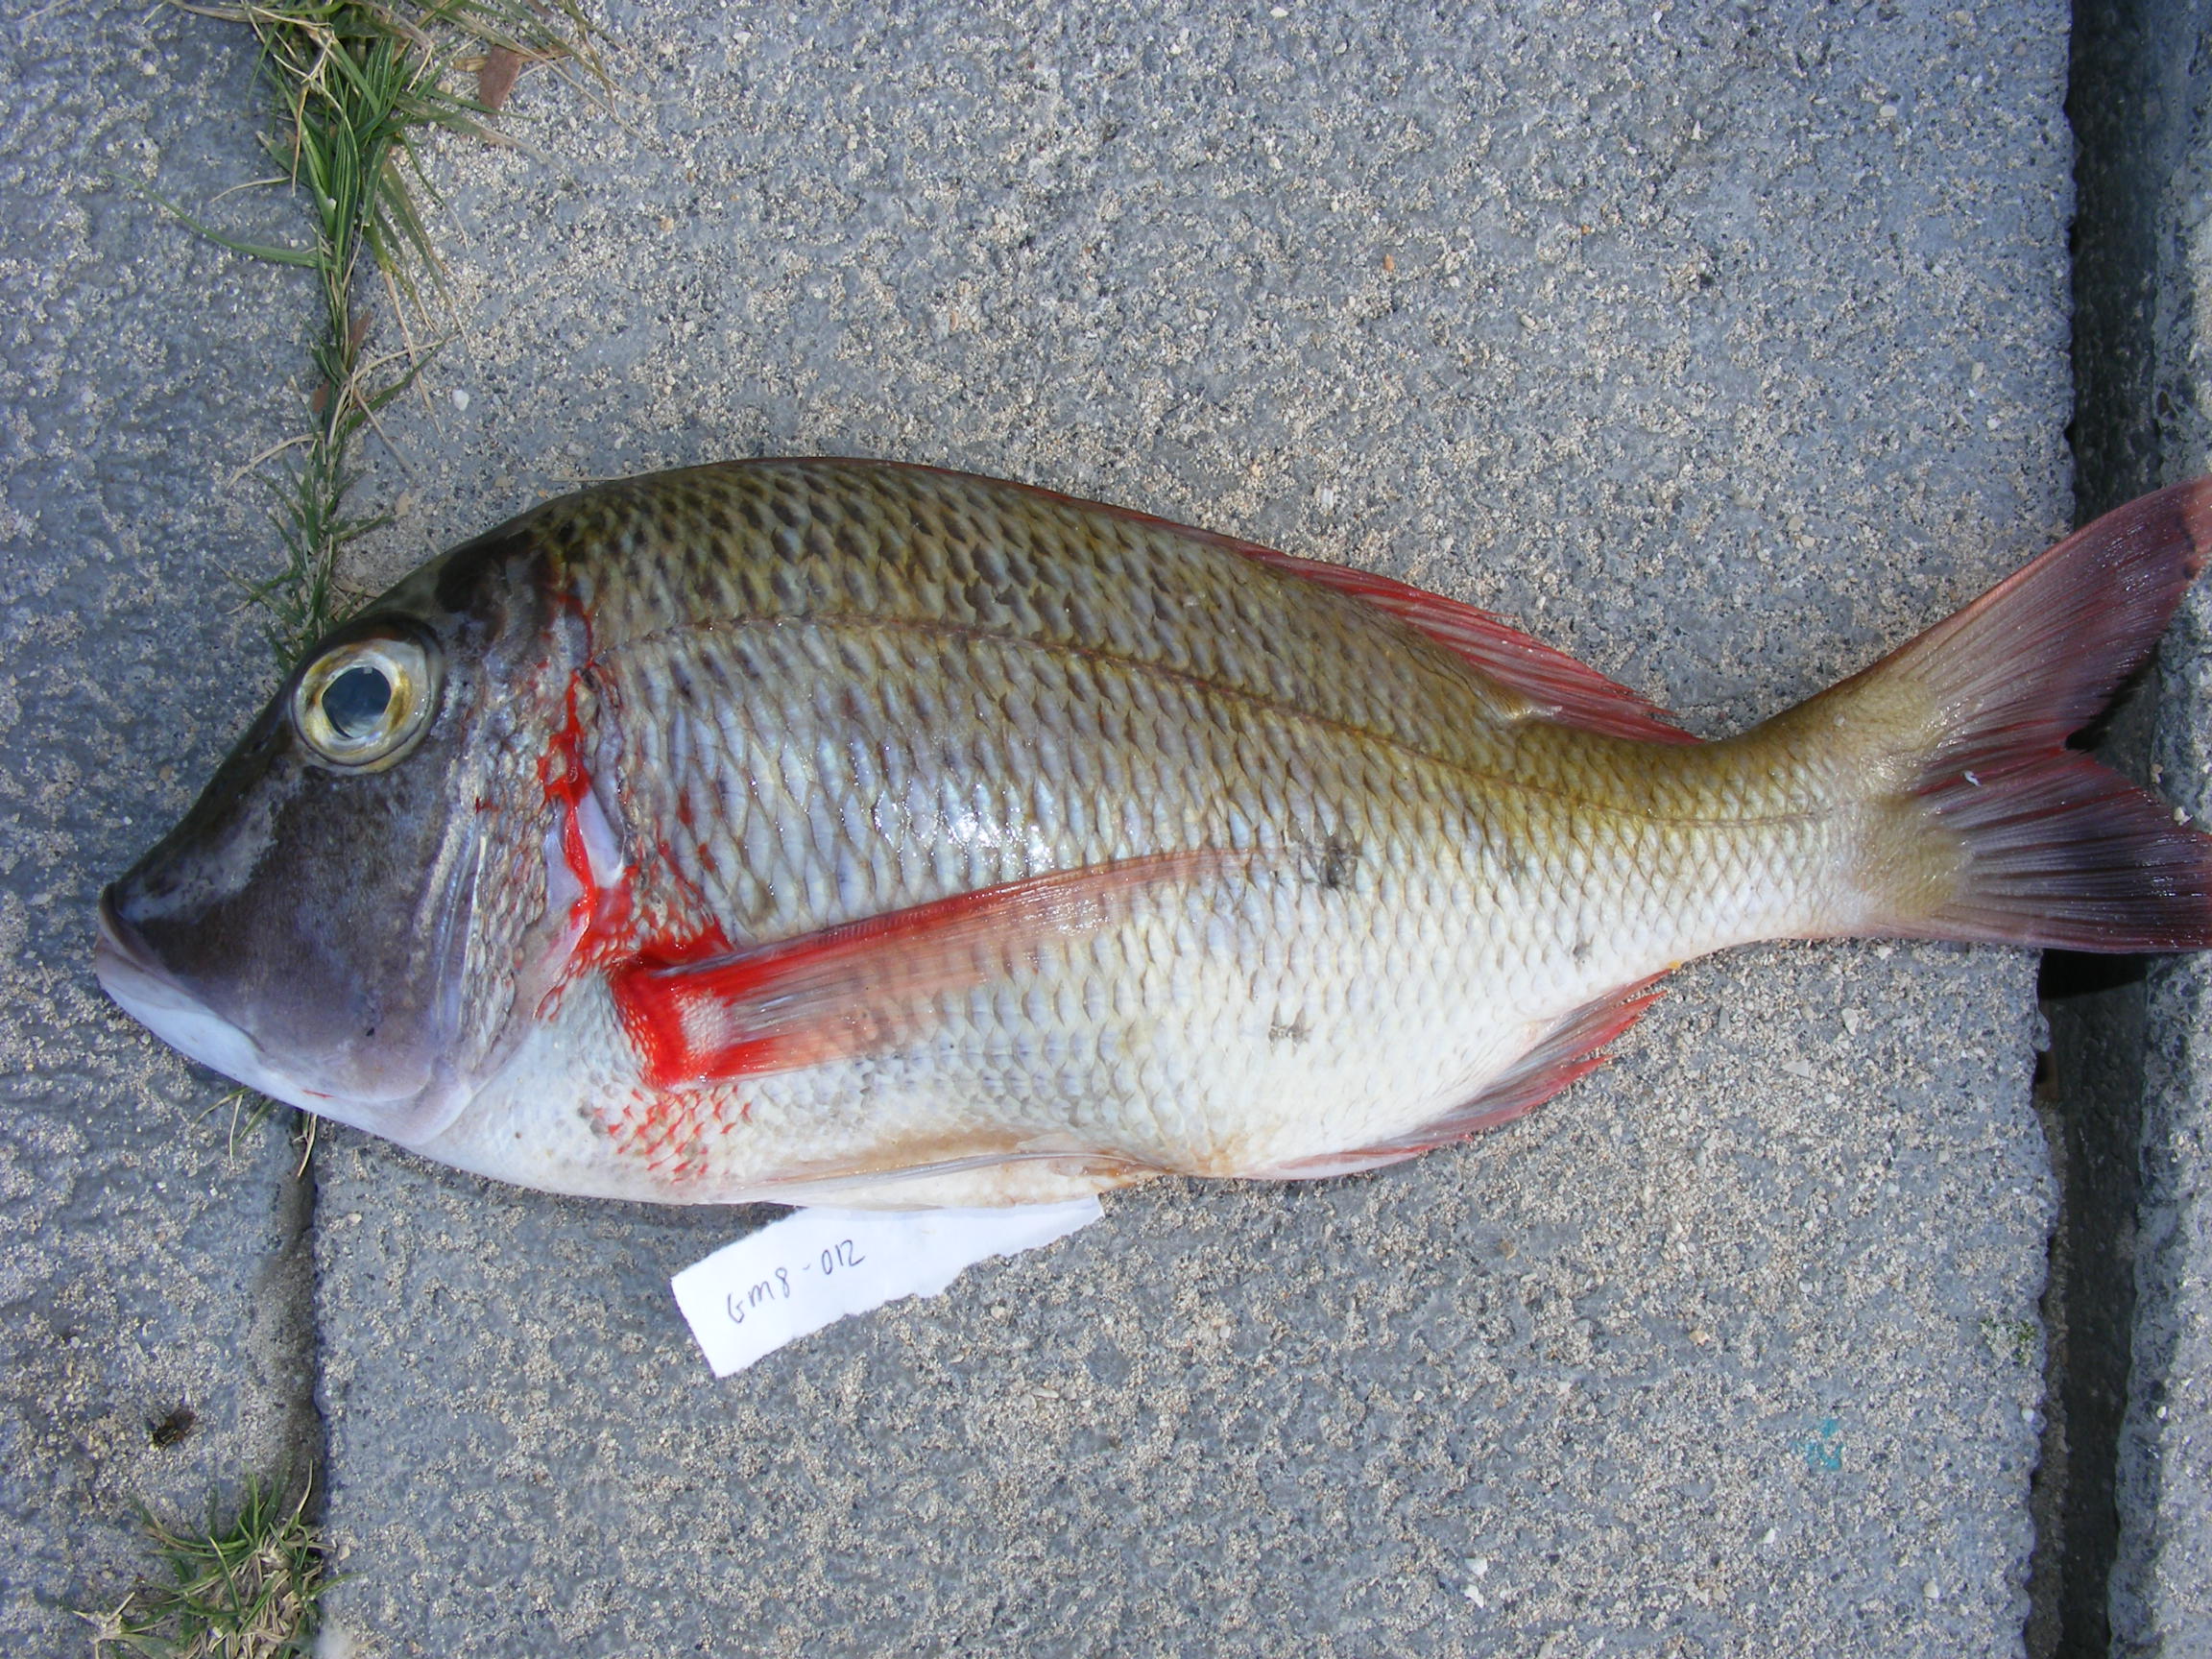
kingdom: Animalia
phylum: Chordata
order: Perciformes
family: Lethrinidae
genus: Lethrinus
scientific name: Lethrinus mahsena
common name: Sky emperor
